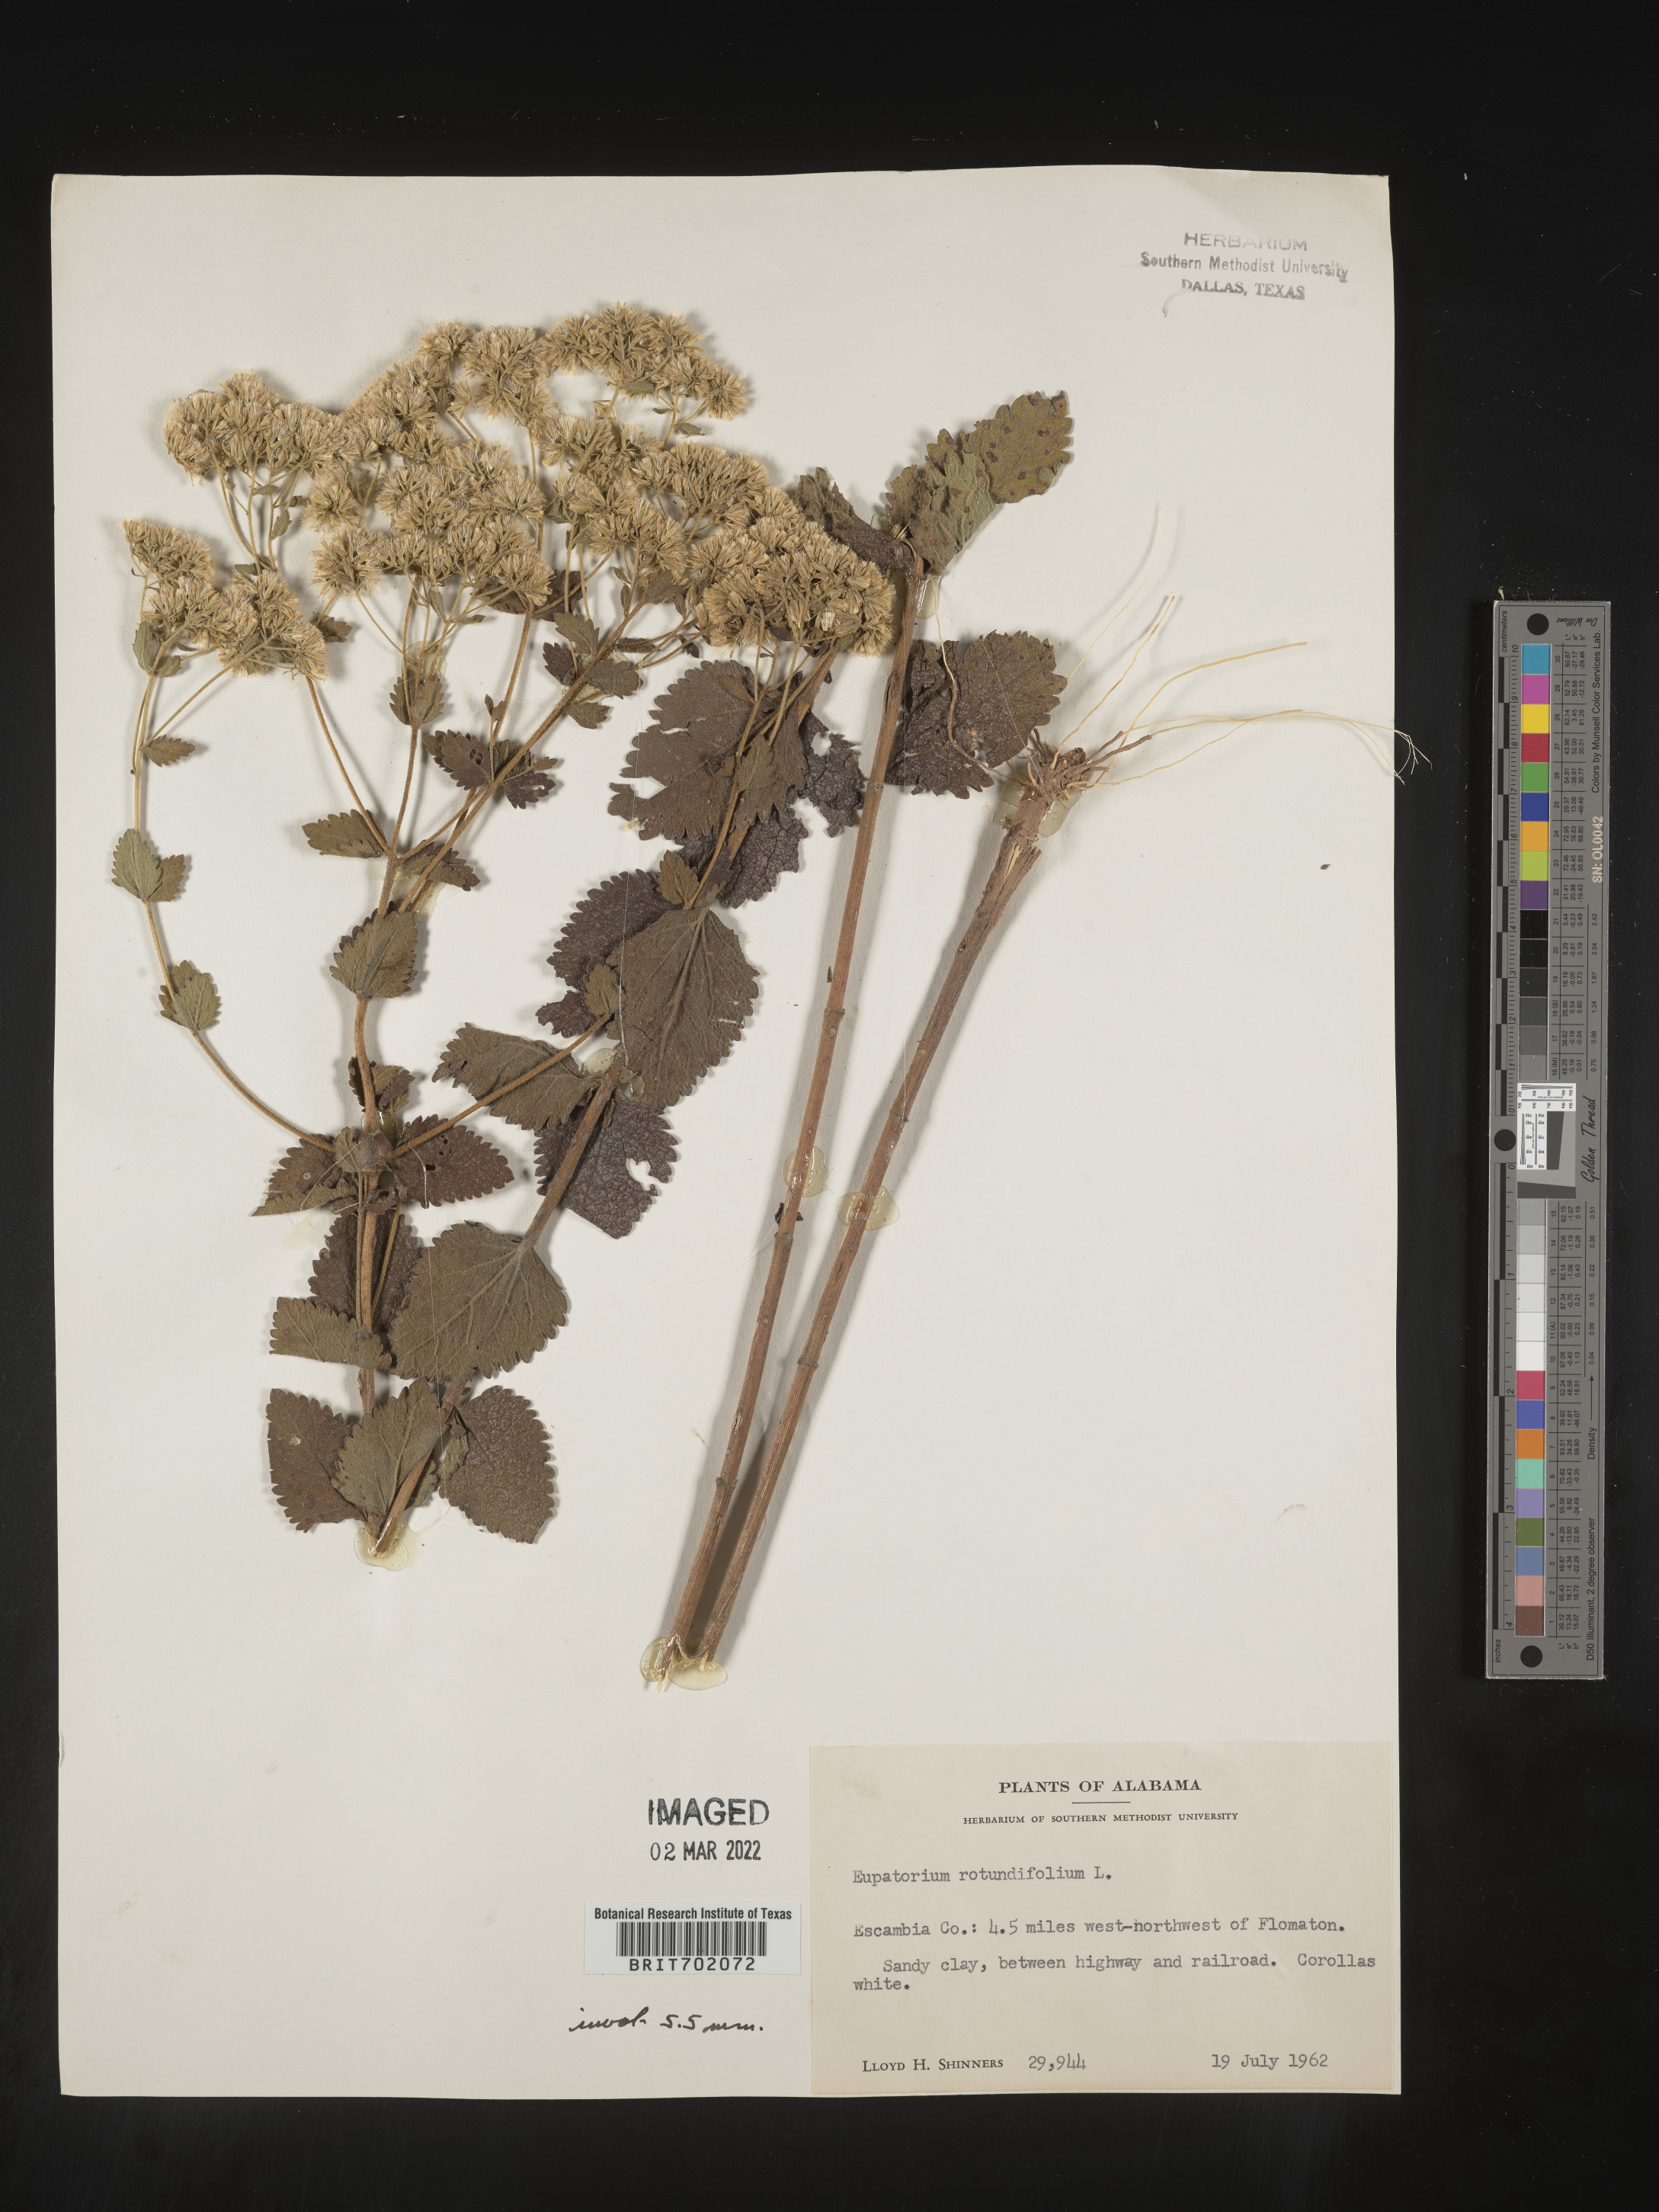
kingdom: Plantae
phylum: Tracheophyta
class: Magnoliopsida
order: Asterales
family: Asteraceae
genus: Eupatorium
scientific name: Eupatorium rotundifolium
